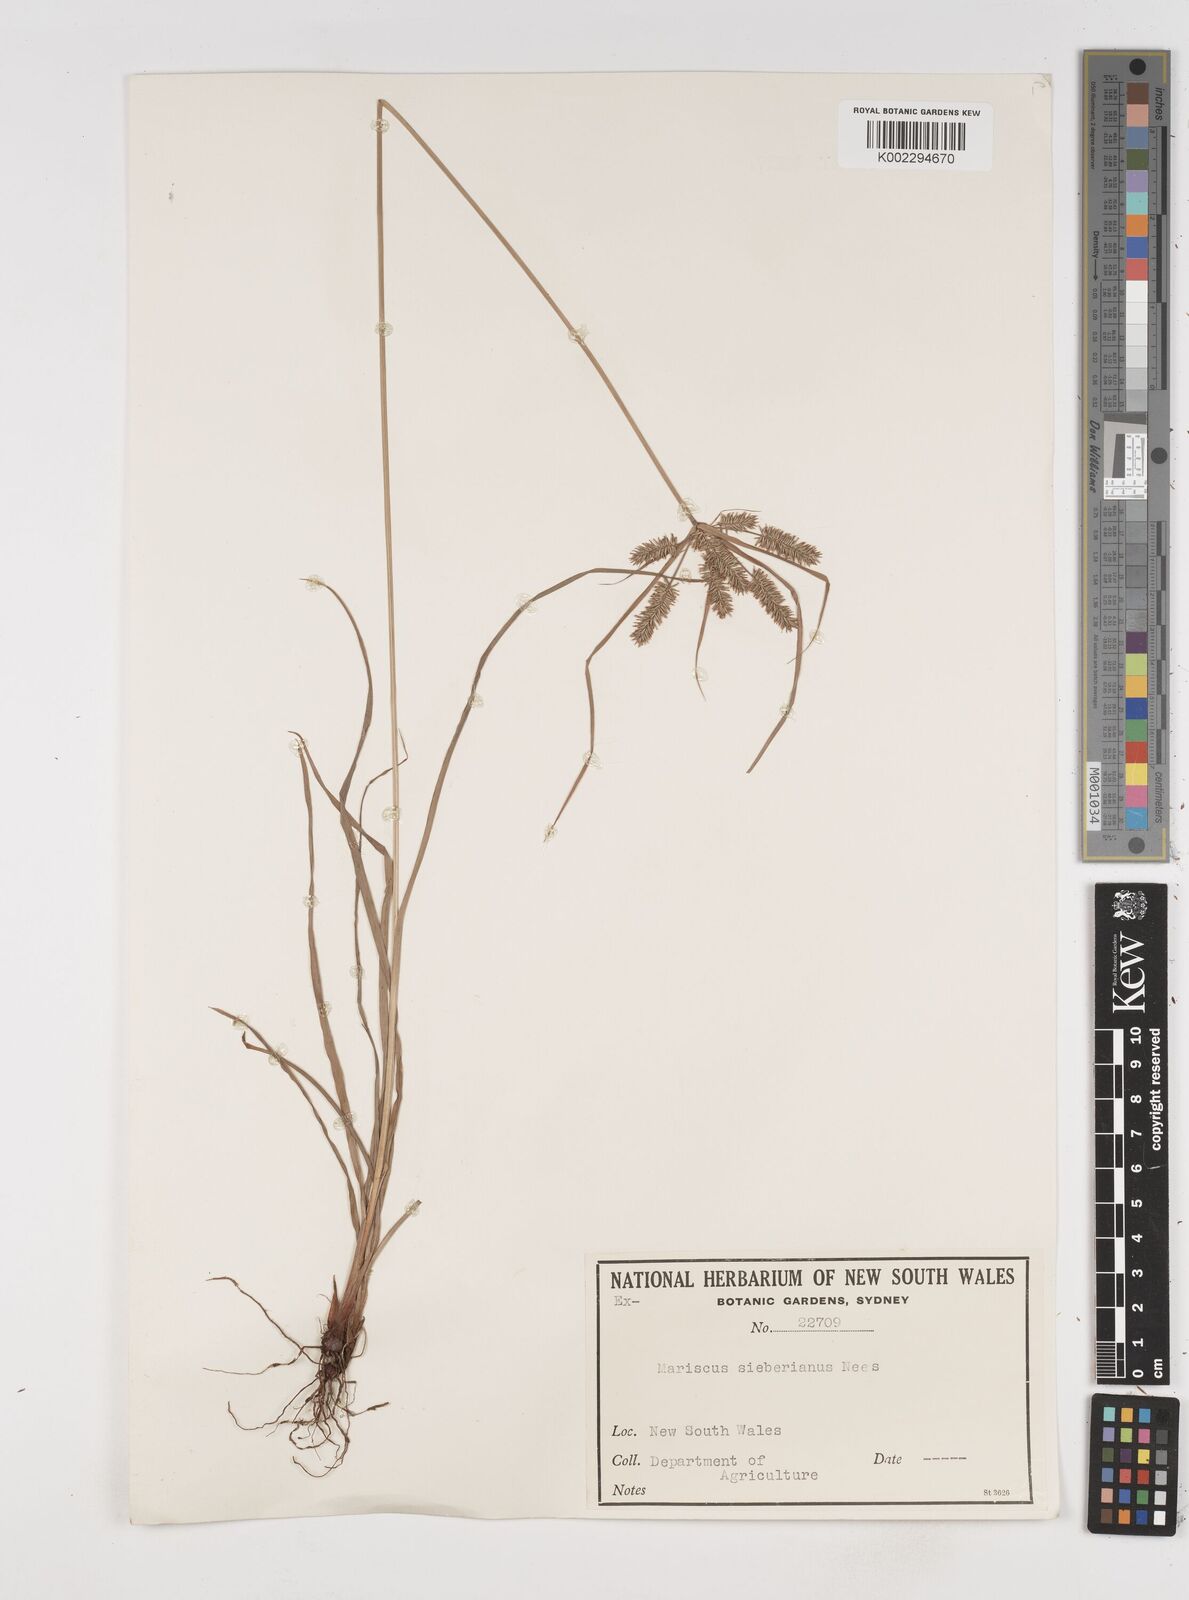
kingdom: Plantae
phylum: Tracheophyta
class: Liliopsida
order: Poales
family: Cyperaceae
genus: Cyperus
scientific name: Cyperus cyperoides
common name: Pacific island flat sedge
